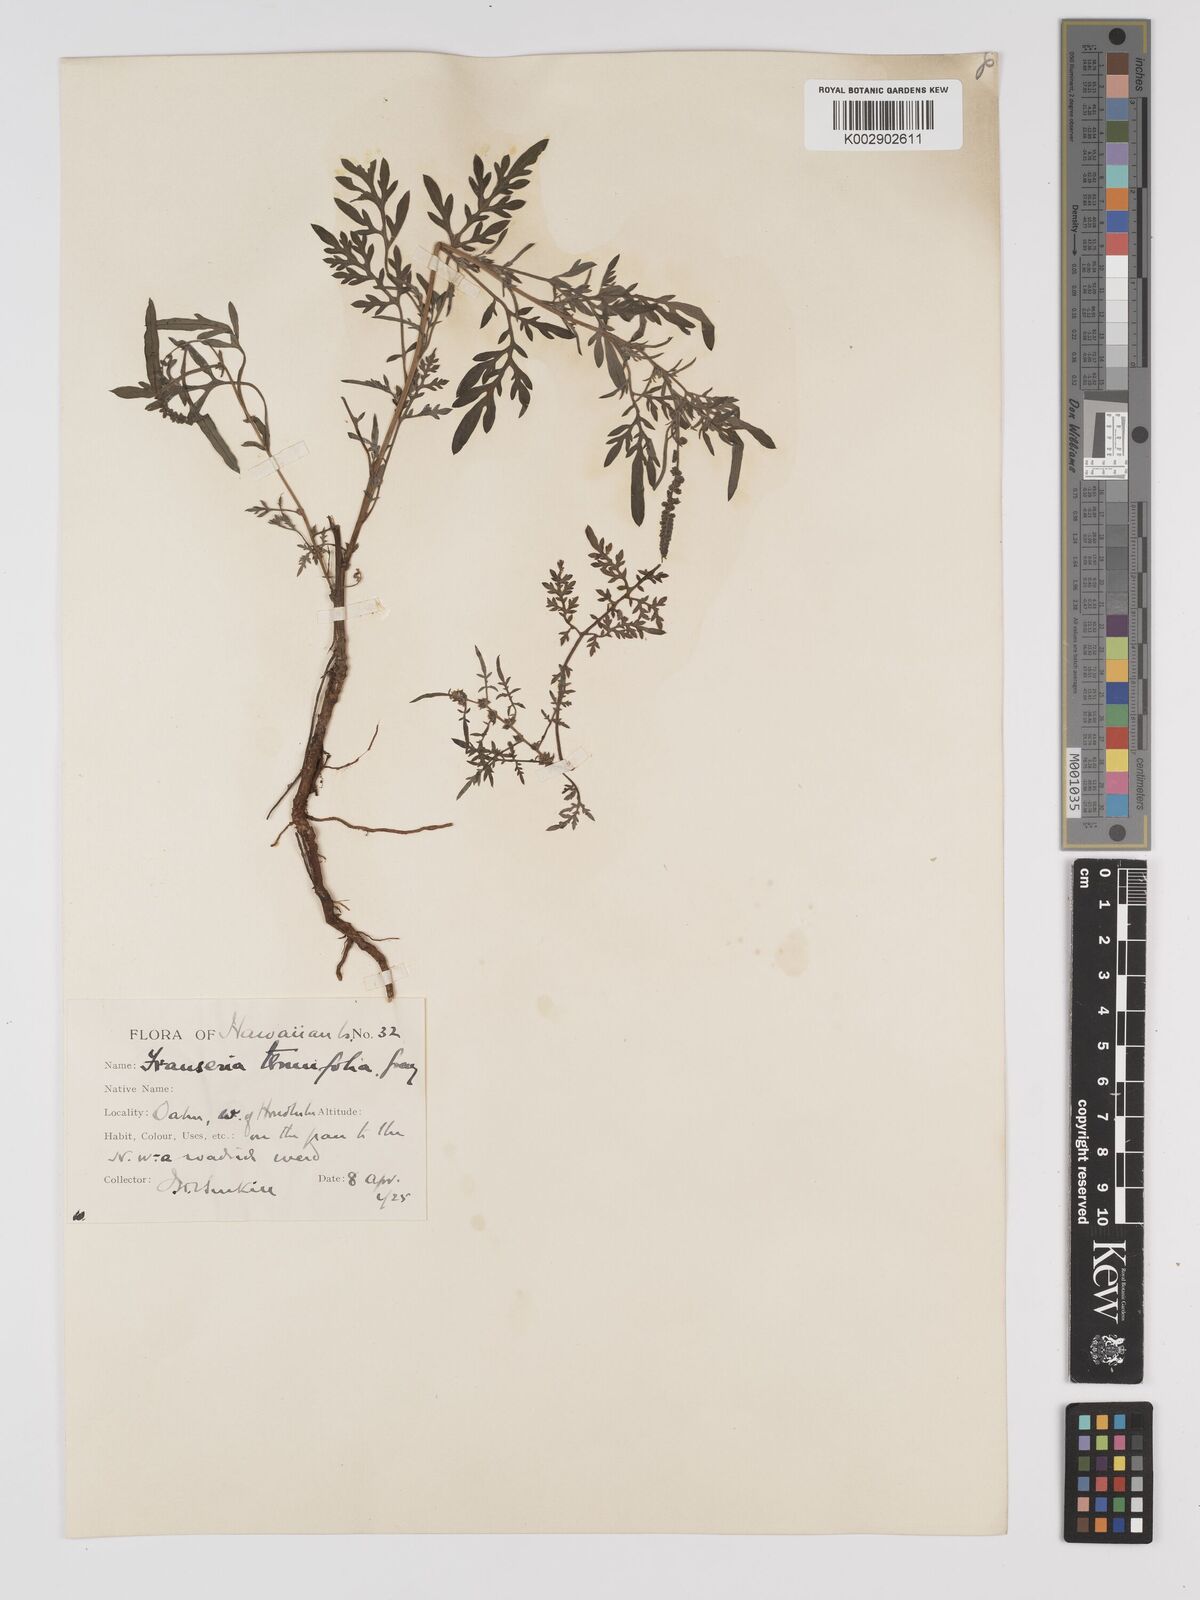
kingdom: Plantae
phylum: Tracheophyta
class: Magnoliopsida
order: Asterales
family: Asteraceae
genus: Ambrosia
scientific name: Ambrosia tenuifolia
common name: Lacy ambrosia
